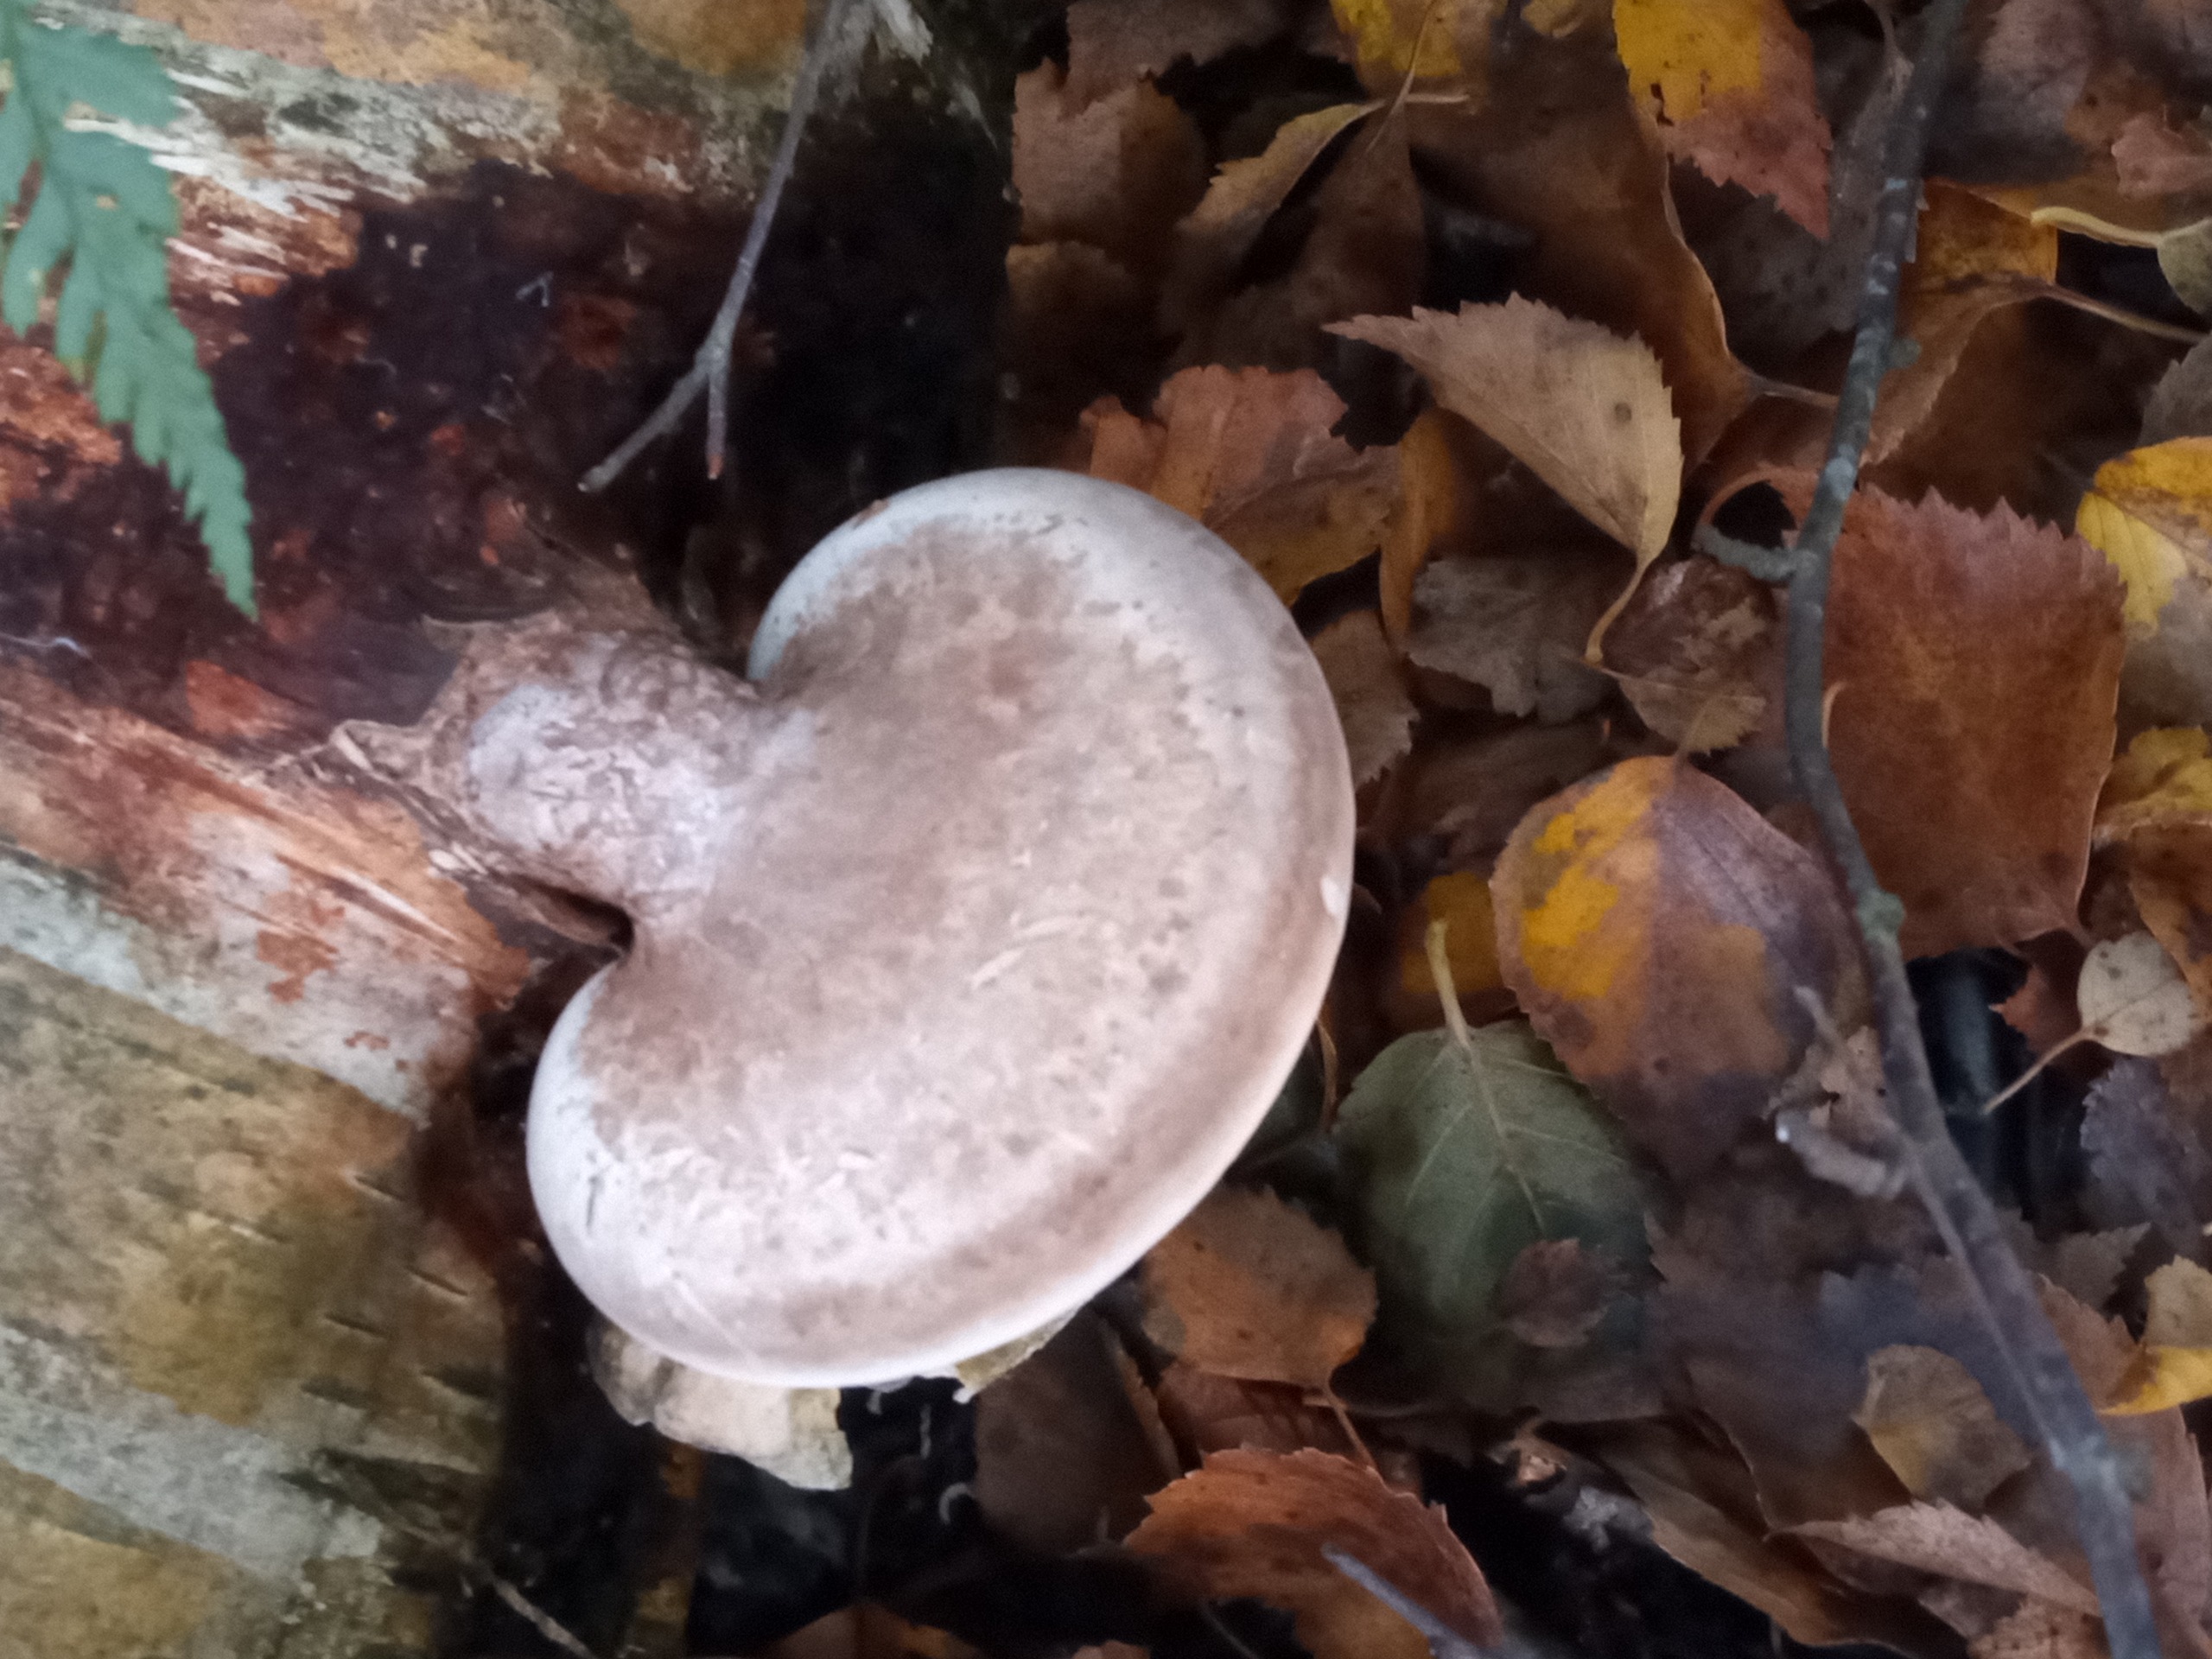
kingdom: Fungi
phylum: Basidiomycota
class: Agaricomycetes
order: Polyporales
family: Fomitopsidaceae
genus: Fomitopsis
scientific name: Fomitopsis betulina
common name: Birkeporesvamp
